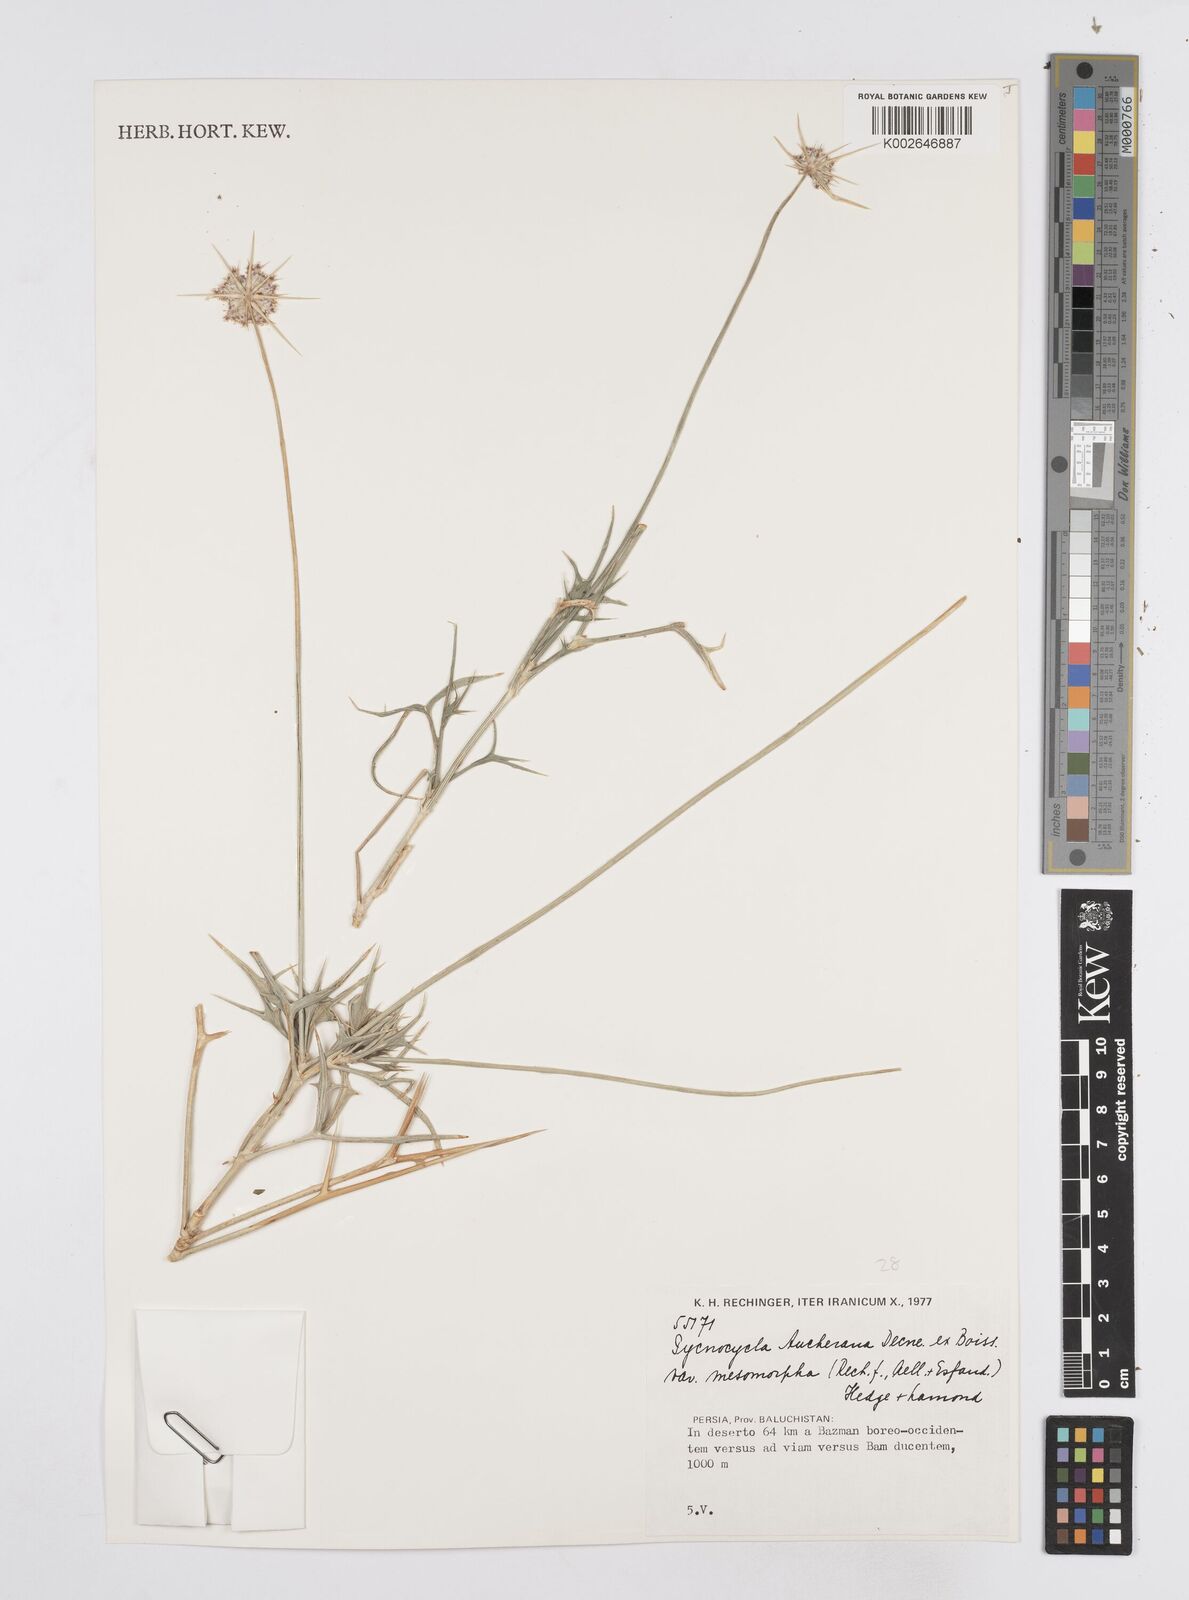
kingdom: Plantae
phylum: Tracheophyta
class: Magnoliopsida
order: Apiales
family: Apiaceae
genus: Pycnocycla
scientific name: Pycnocycla aucheriana
